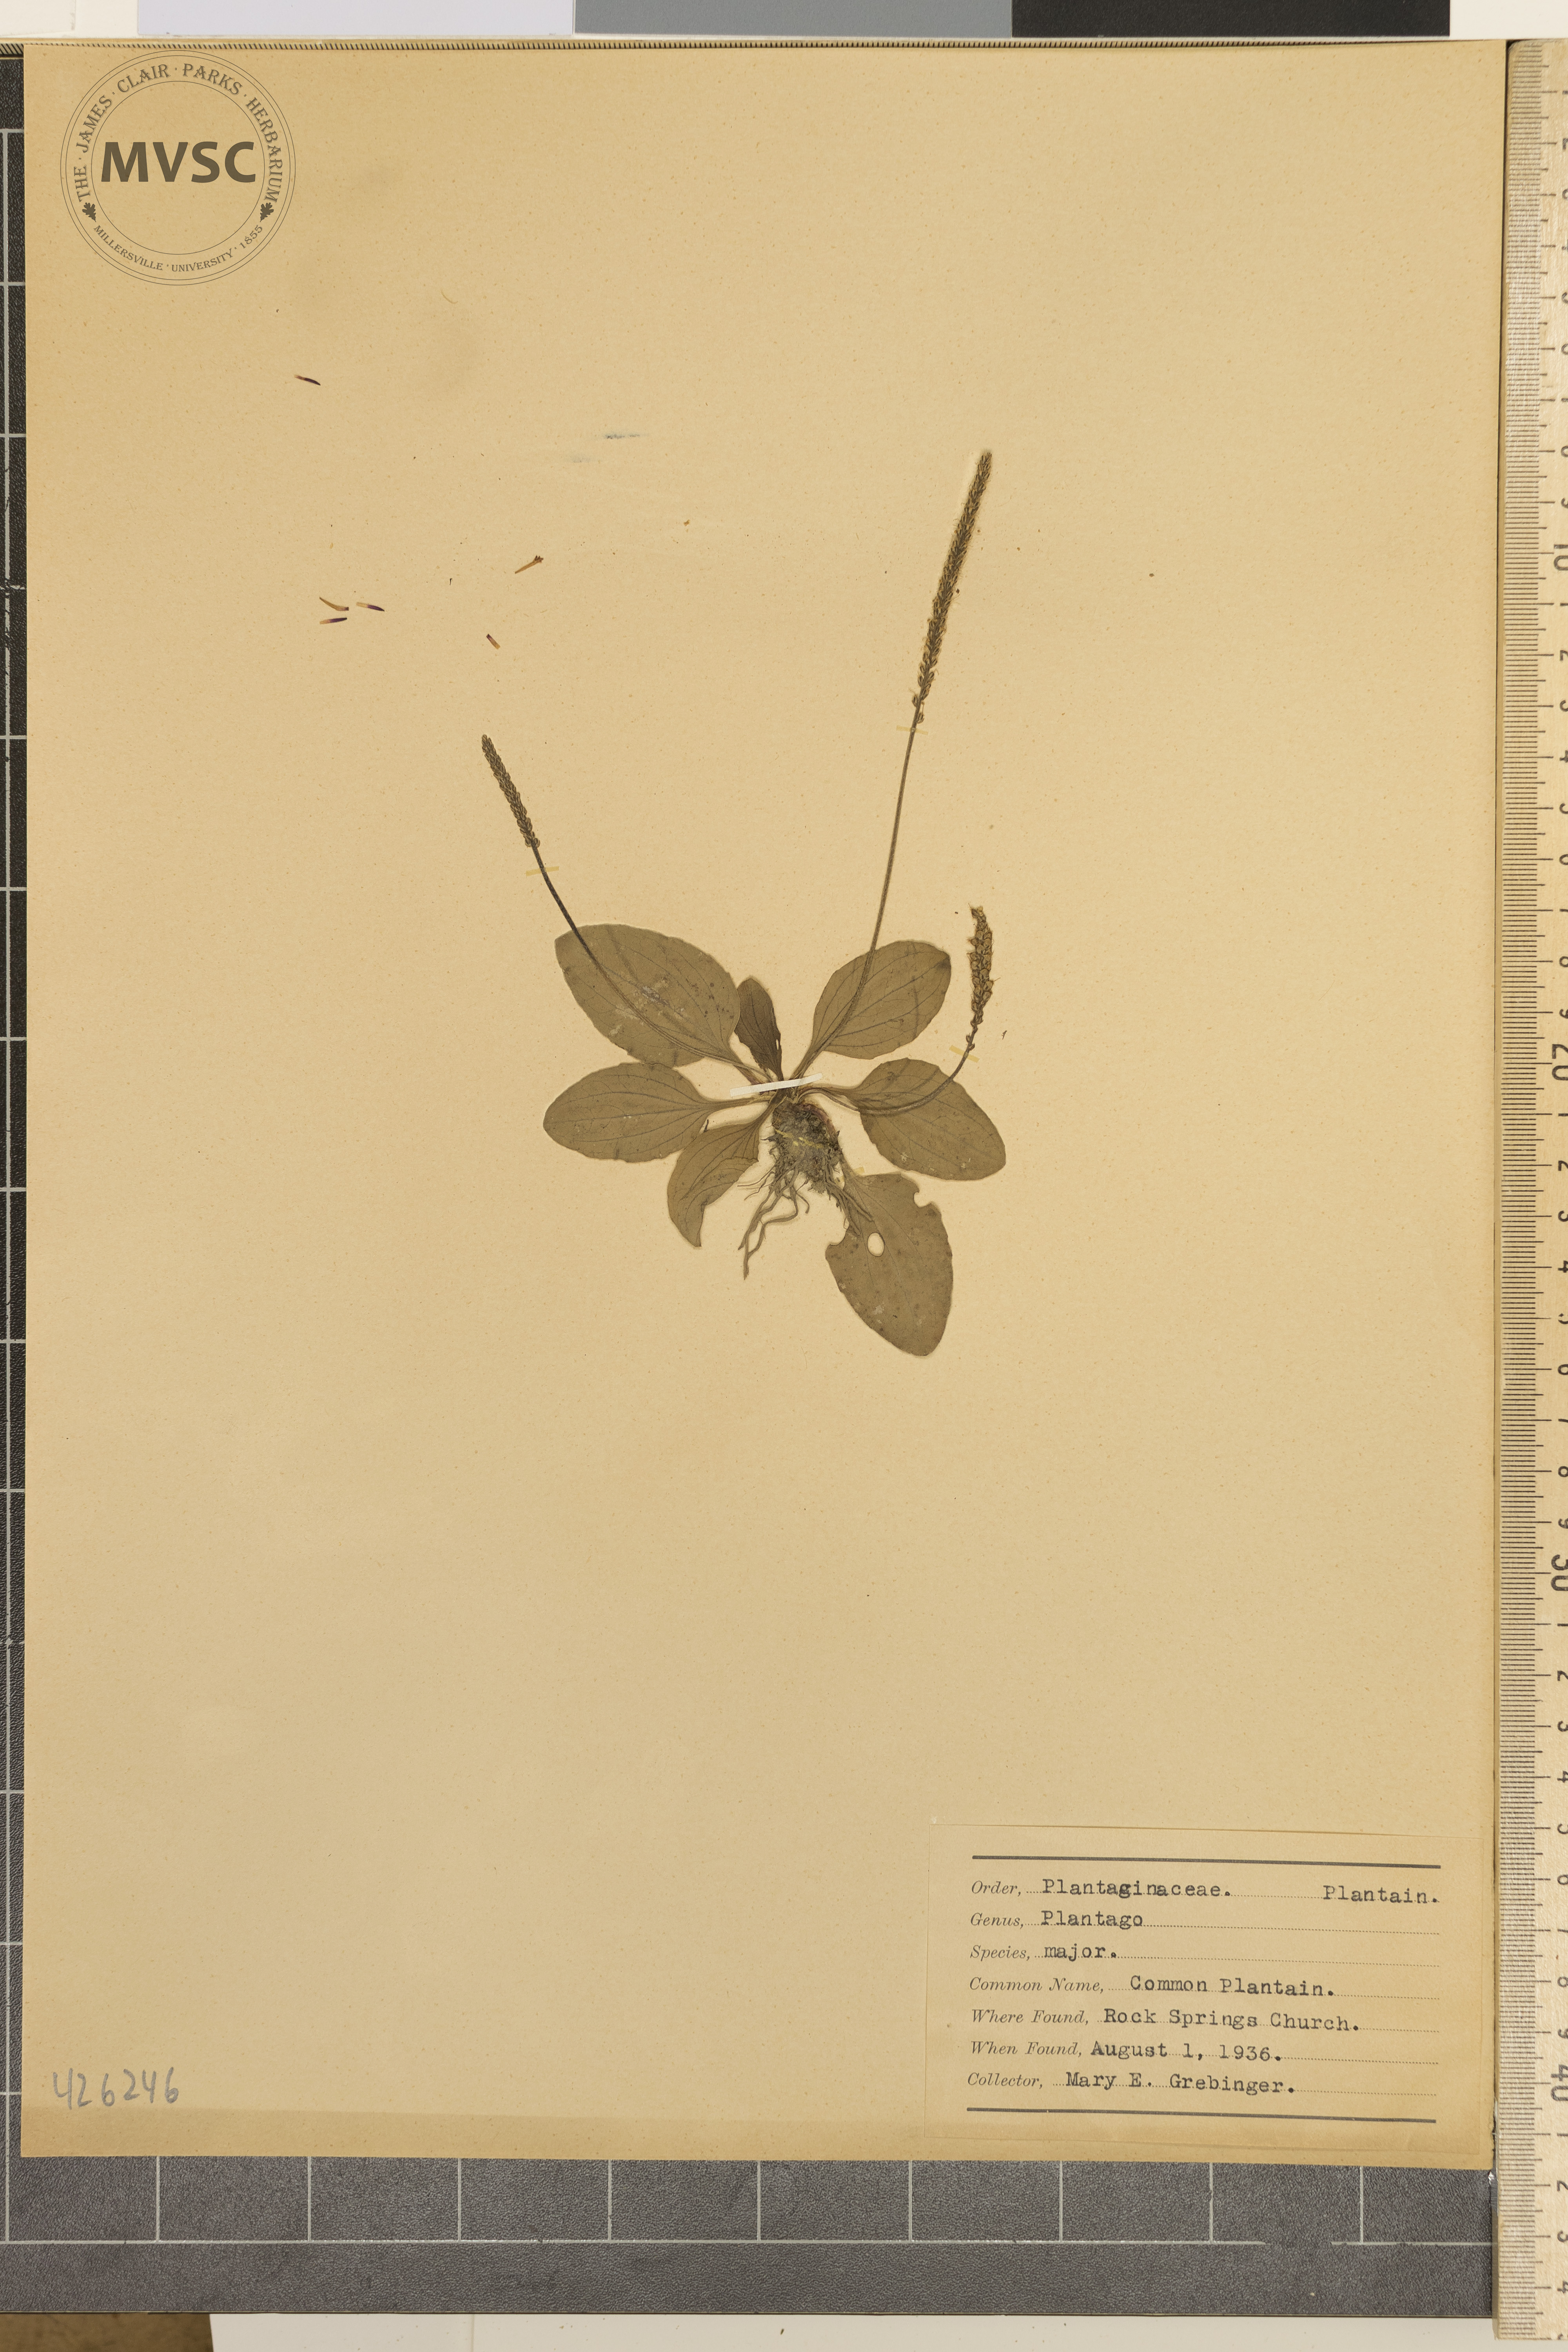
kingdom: Plantae
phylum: Tracheophyta
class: Magnoliopsida
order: Lamiales
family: Plantaginaceae
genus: Plantago
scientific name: Plantago major
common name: Common plantain
